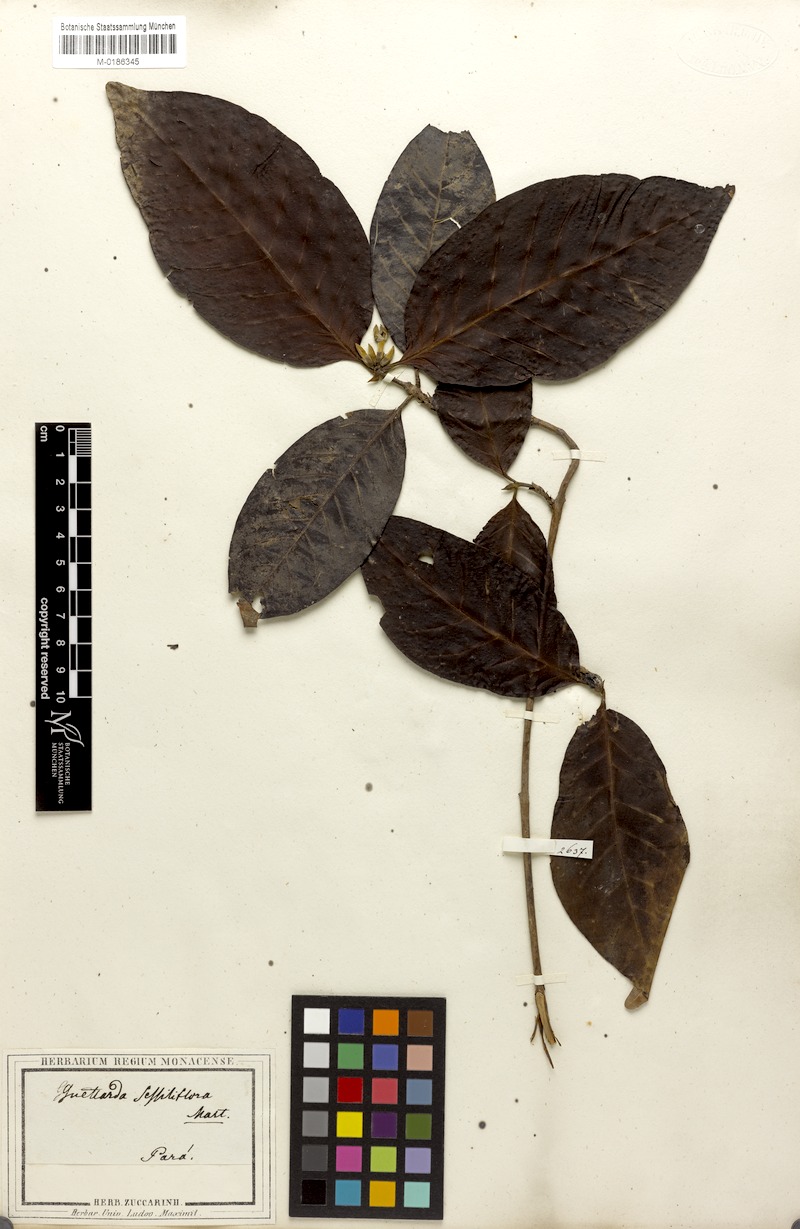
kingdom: Plantae
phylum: Tracheophyta
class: Magnoliopsida
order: Gentianales
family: Rubiaceae
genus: Alibertia
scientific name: Alibertia latifolia
